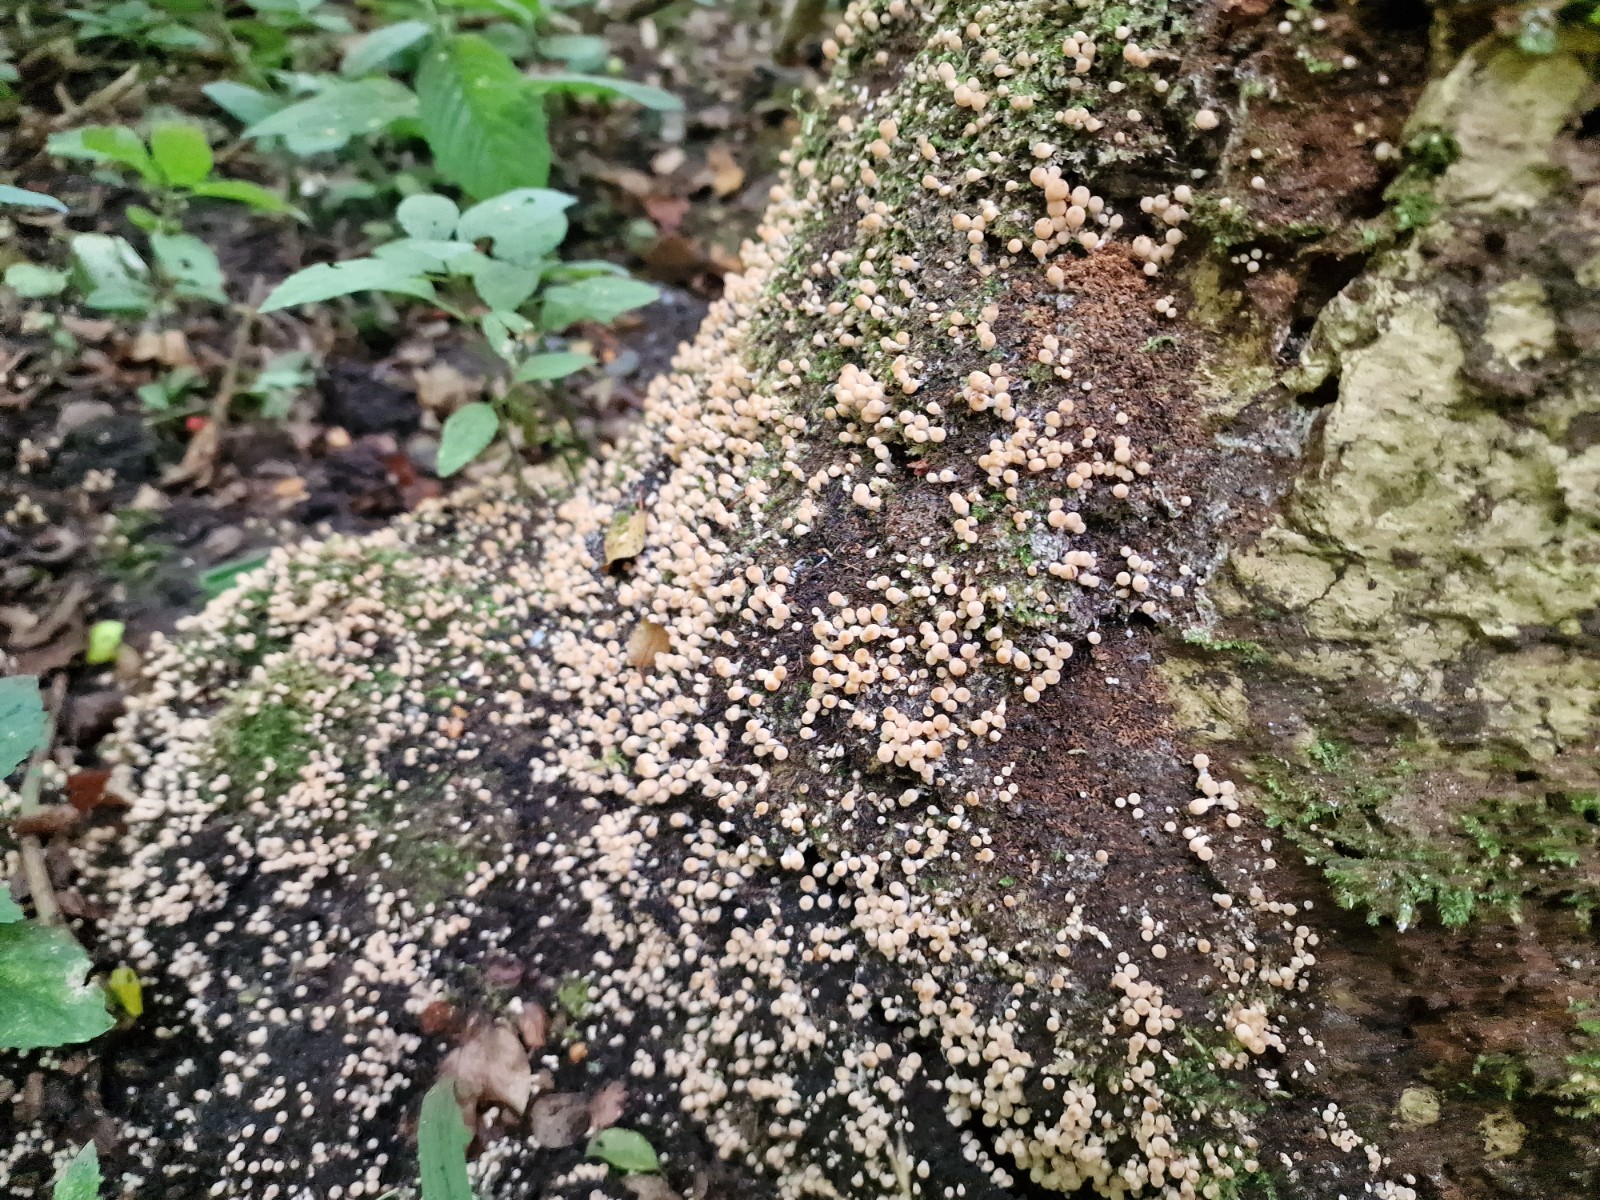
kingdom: Fungi
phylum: Basidiomycota
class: Agaricomycetes
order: Agaricales
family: Psathyrellaceae
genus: Coprinellus
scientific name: Coprinellus disseminatus
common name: bredsået blækhat
